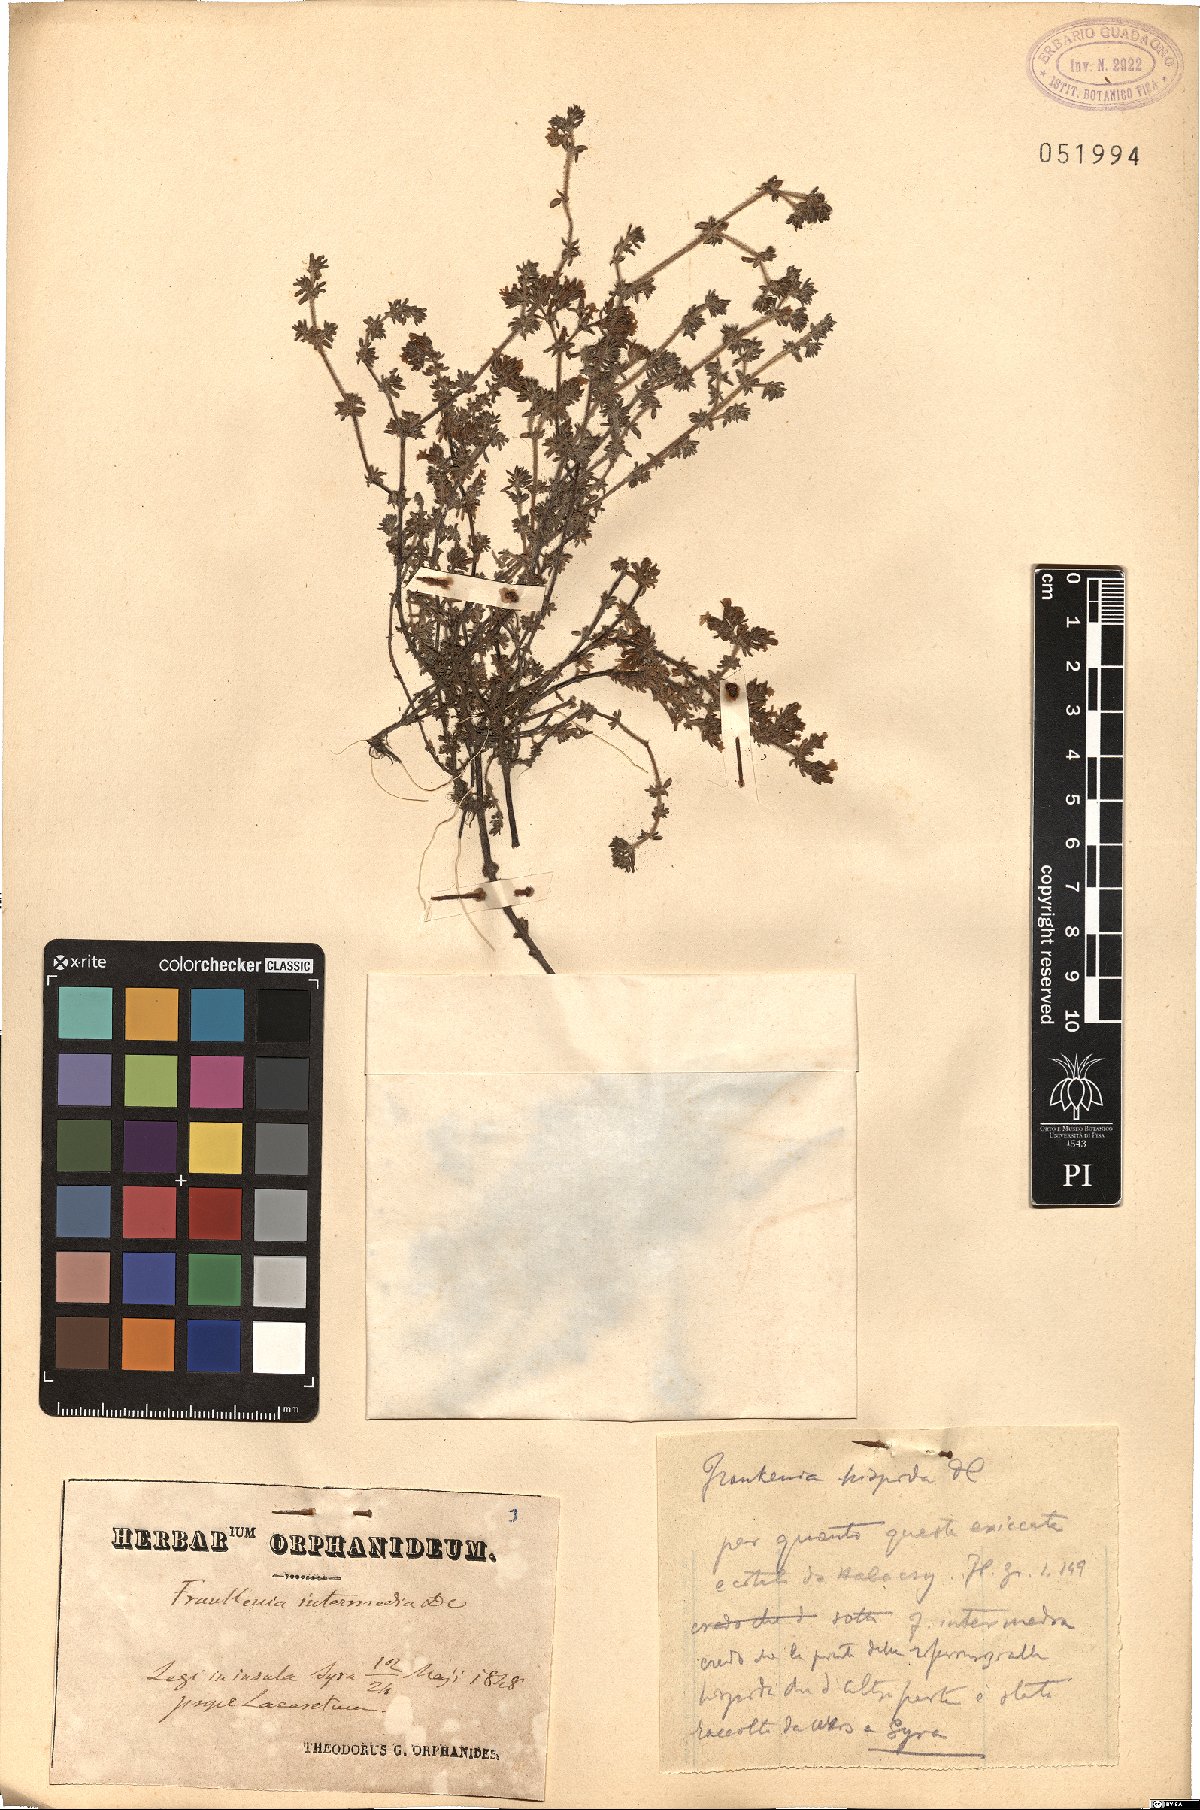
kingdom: Plantae
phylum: Tracheophyta
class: Magnoliopsida
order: Caryophyllales
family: Frankeniaceae
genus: Frankenia
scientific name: Frankenia hirsuta
